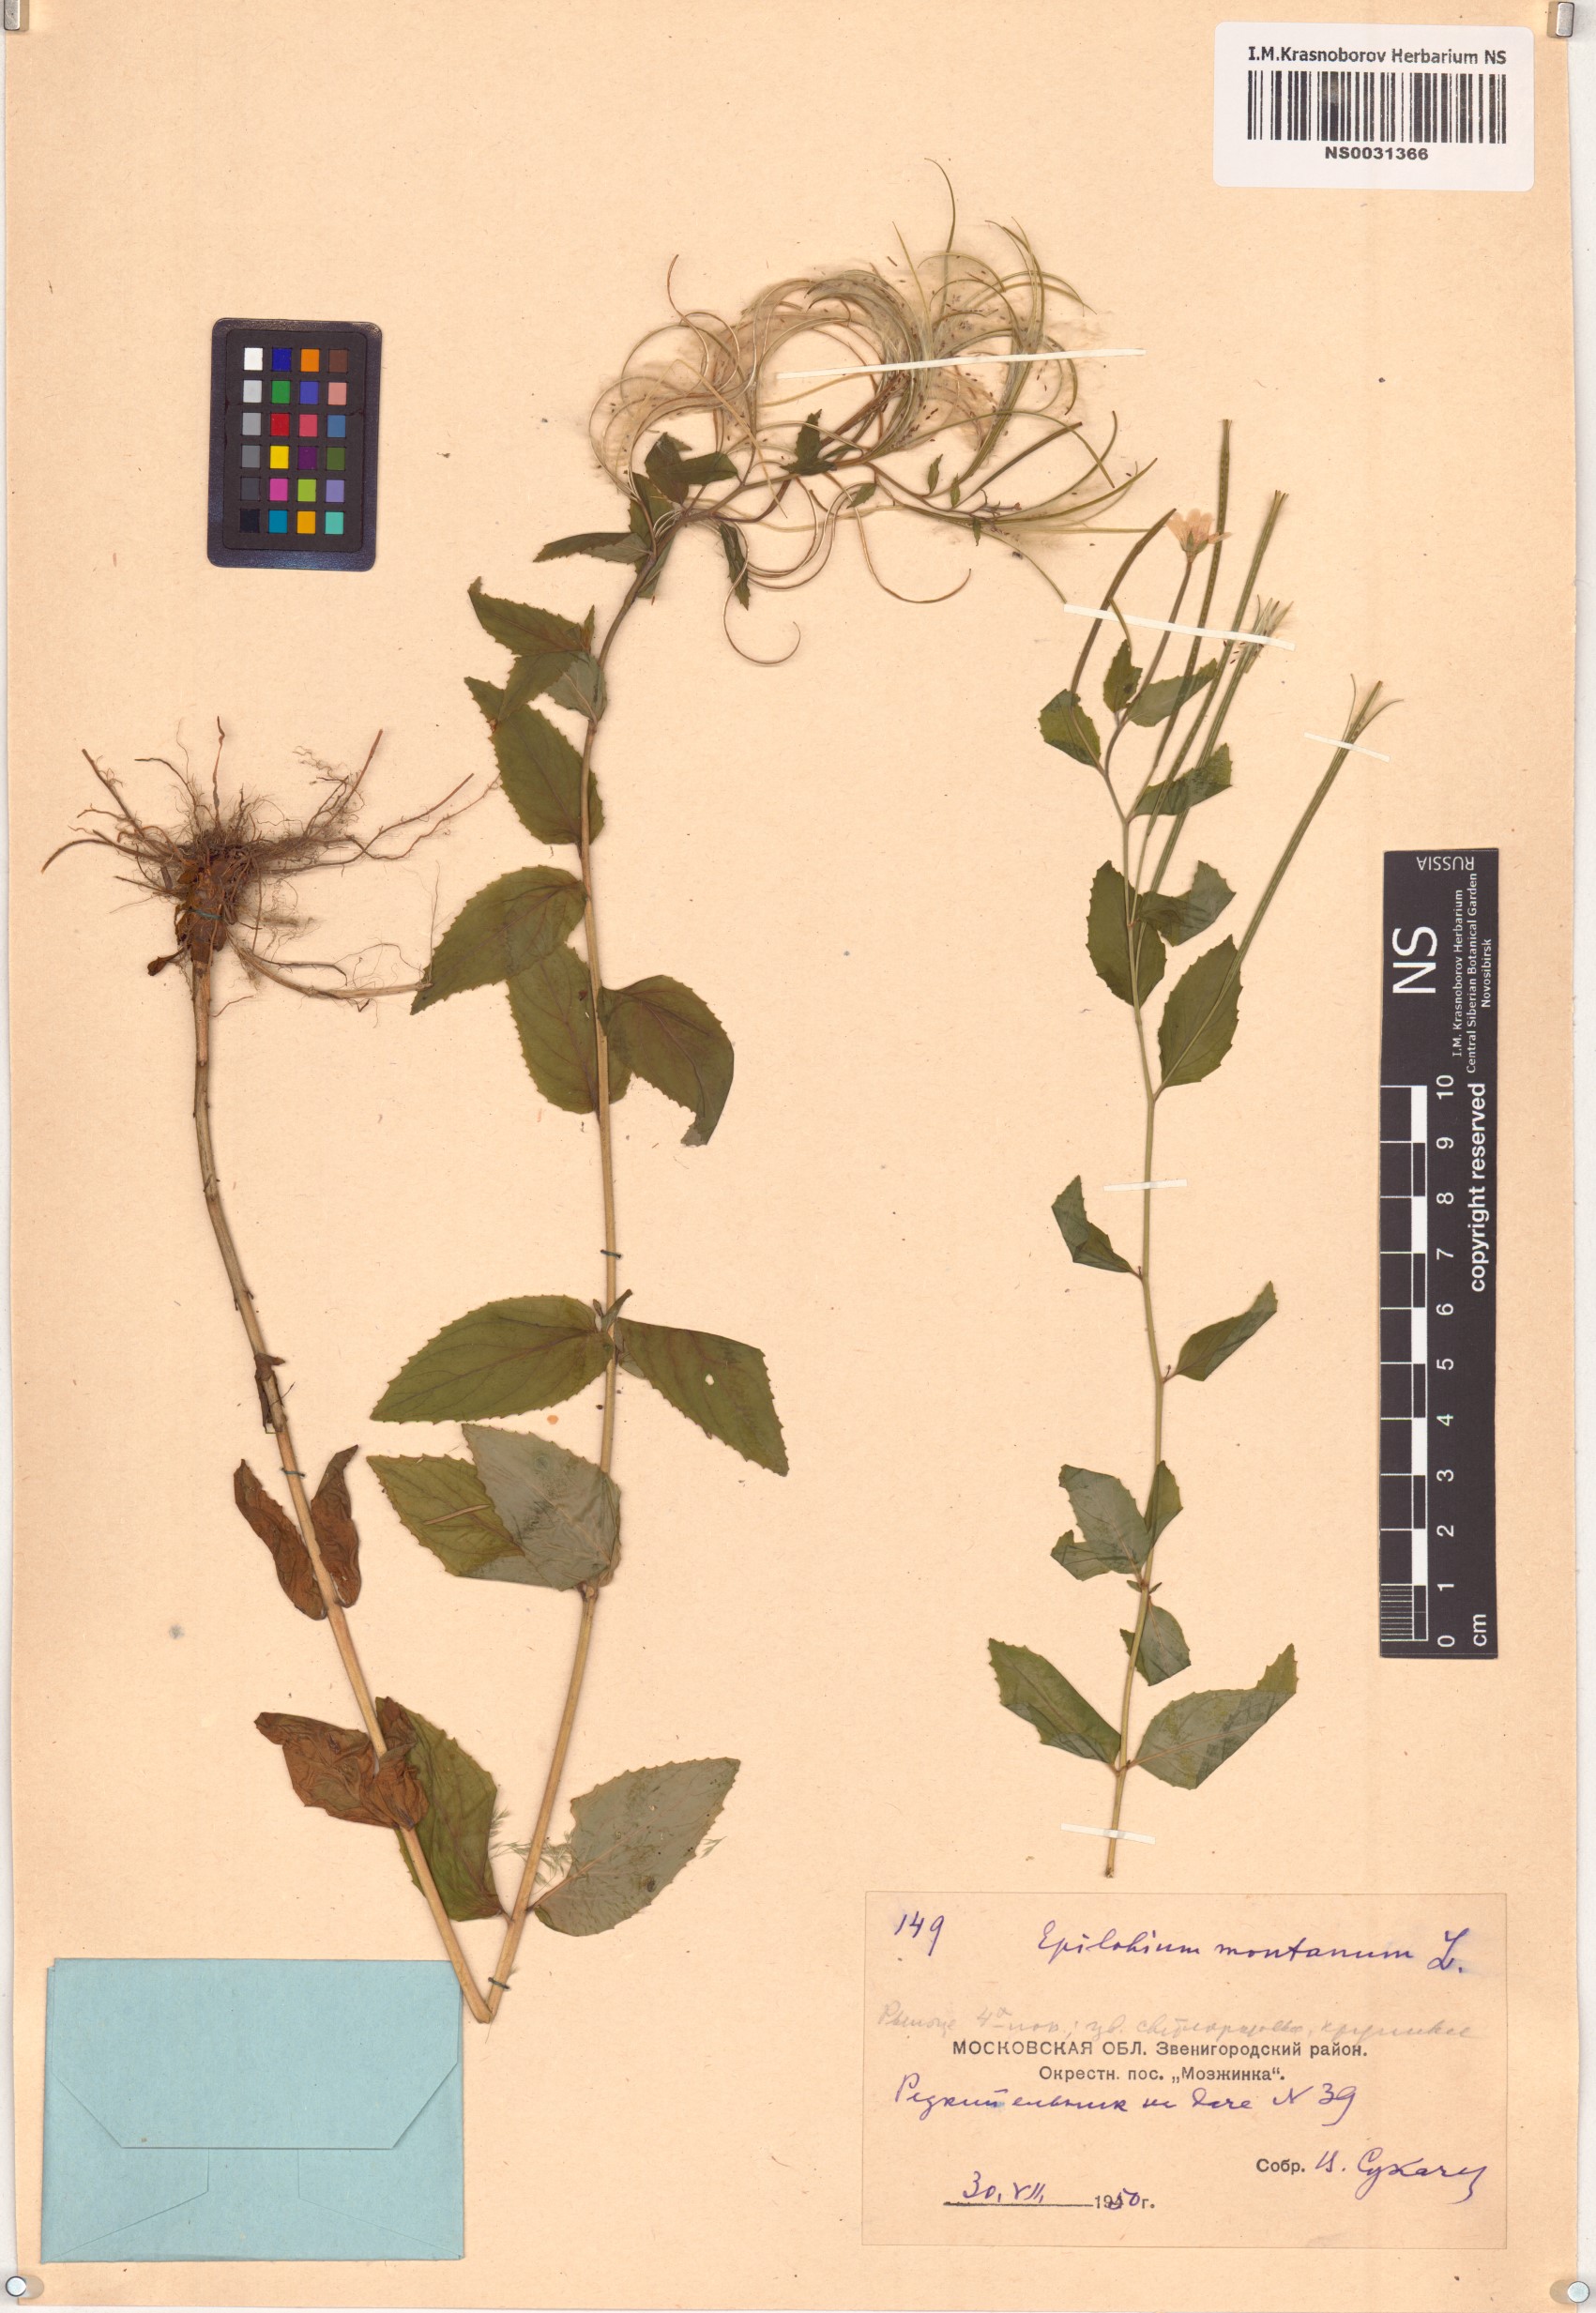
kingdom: Plantae
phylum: Tracheophyta
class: Magnoliopsida
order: Myrtales
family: Onagraceae
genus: Epilobium
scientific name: Epilobium montanum
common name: Broad-leaved willowherb
